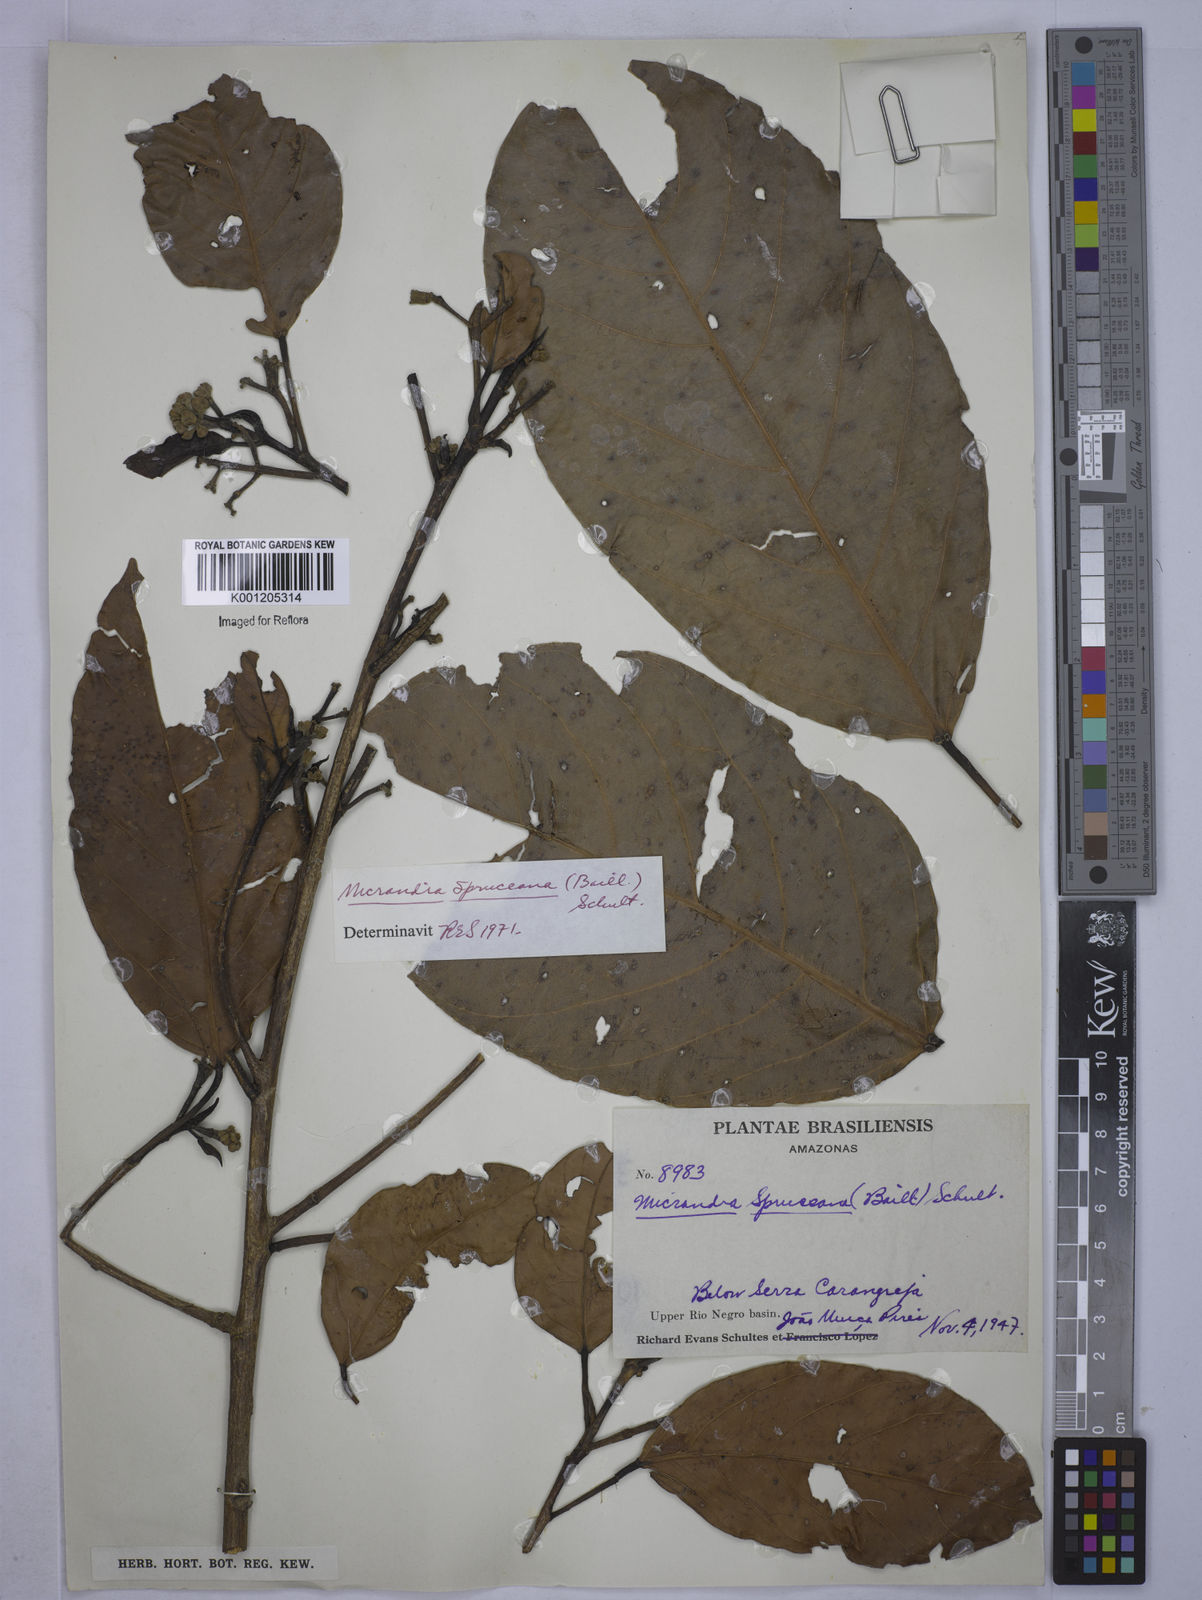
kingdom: Plantae
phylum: Tracheophyta
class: Magnoliopsida
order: Malpighiales
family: Euphorbiaceae
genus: Micrandra
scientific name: Micrandra spruceana
